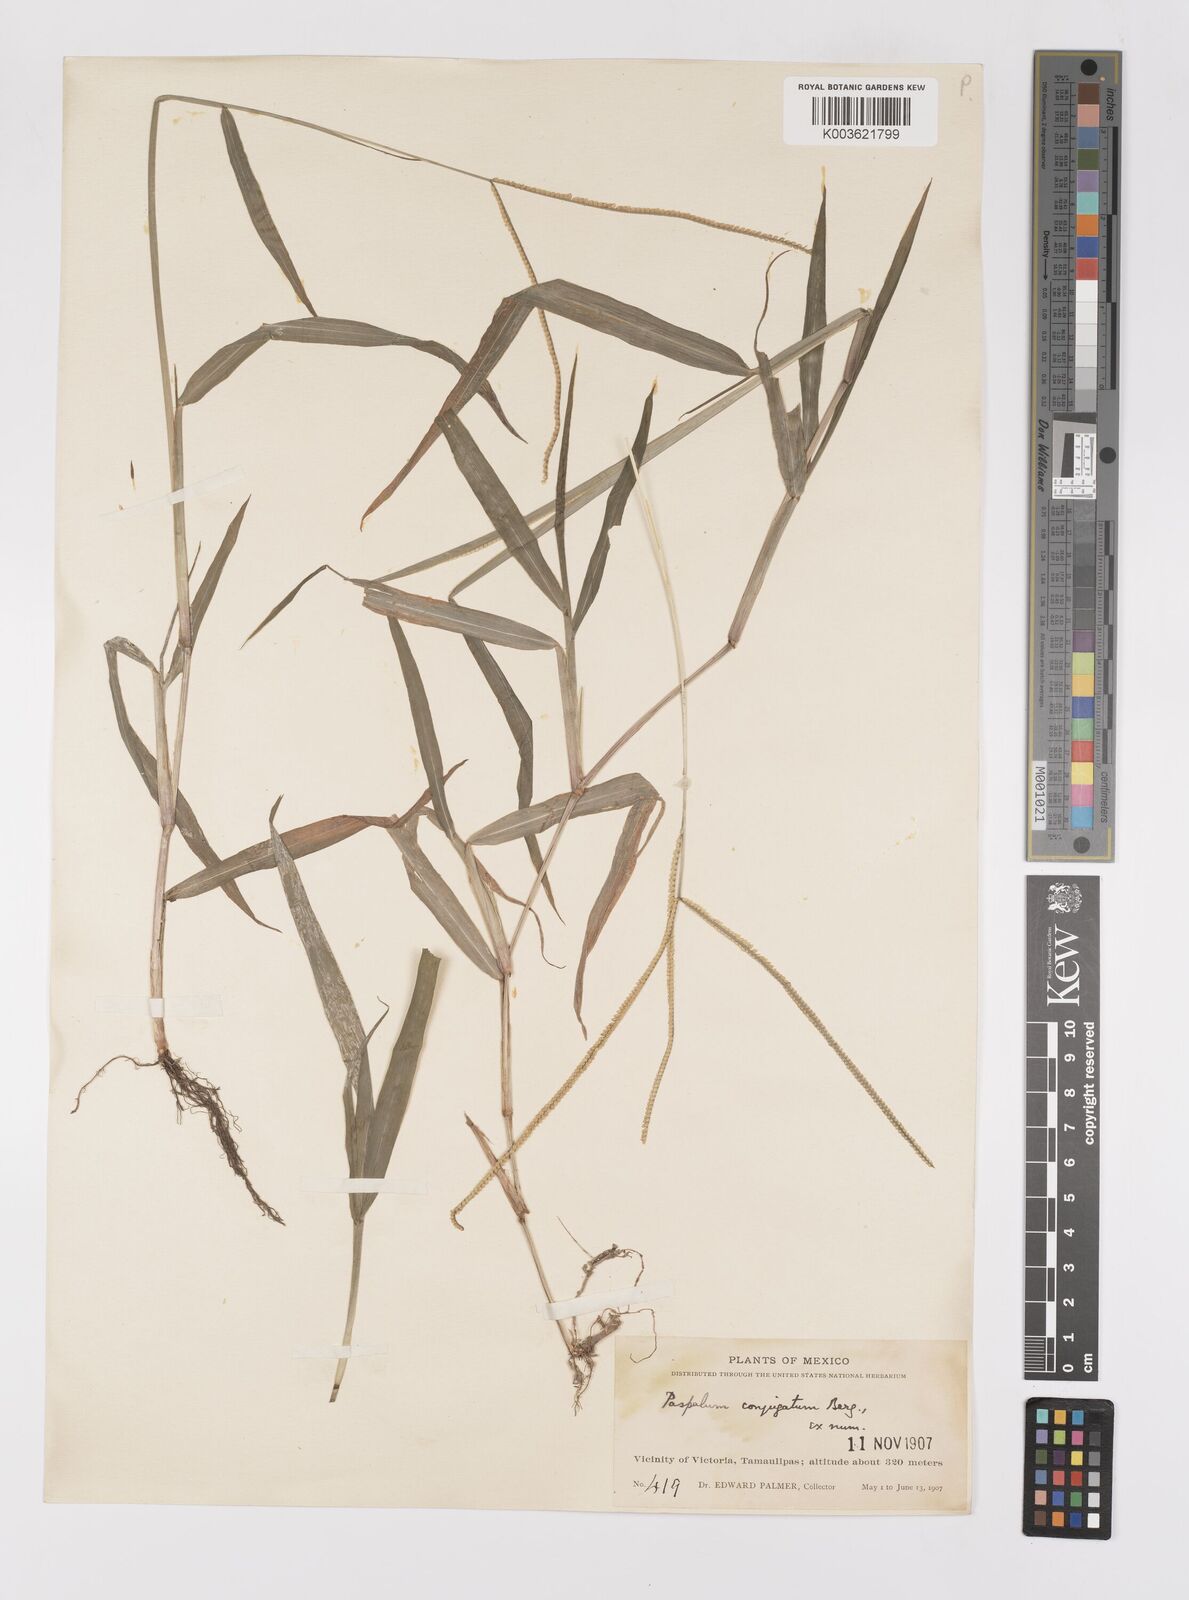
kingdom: Plantae
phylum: Tracheophyta
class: Liliopsida
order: Poales
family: Poaceae
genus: Paspalum
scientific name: Paspalum conjugatum
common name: Hilograss
